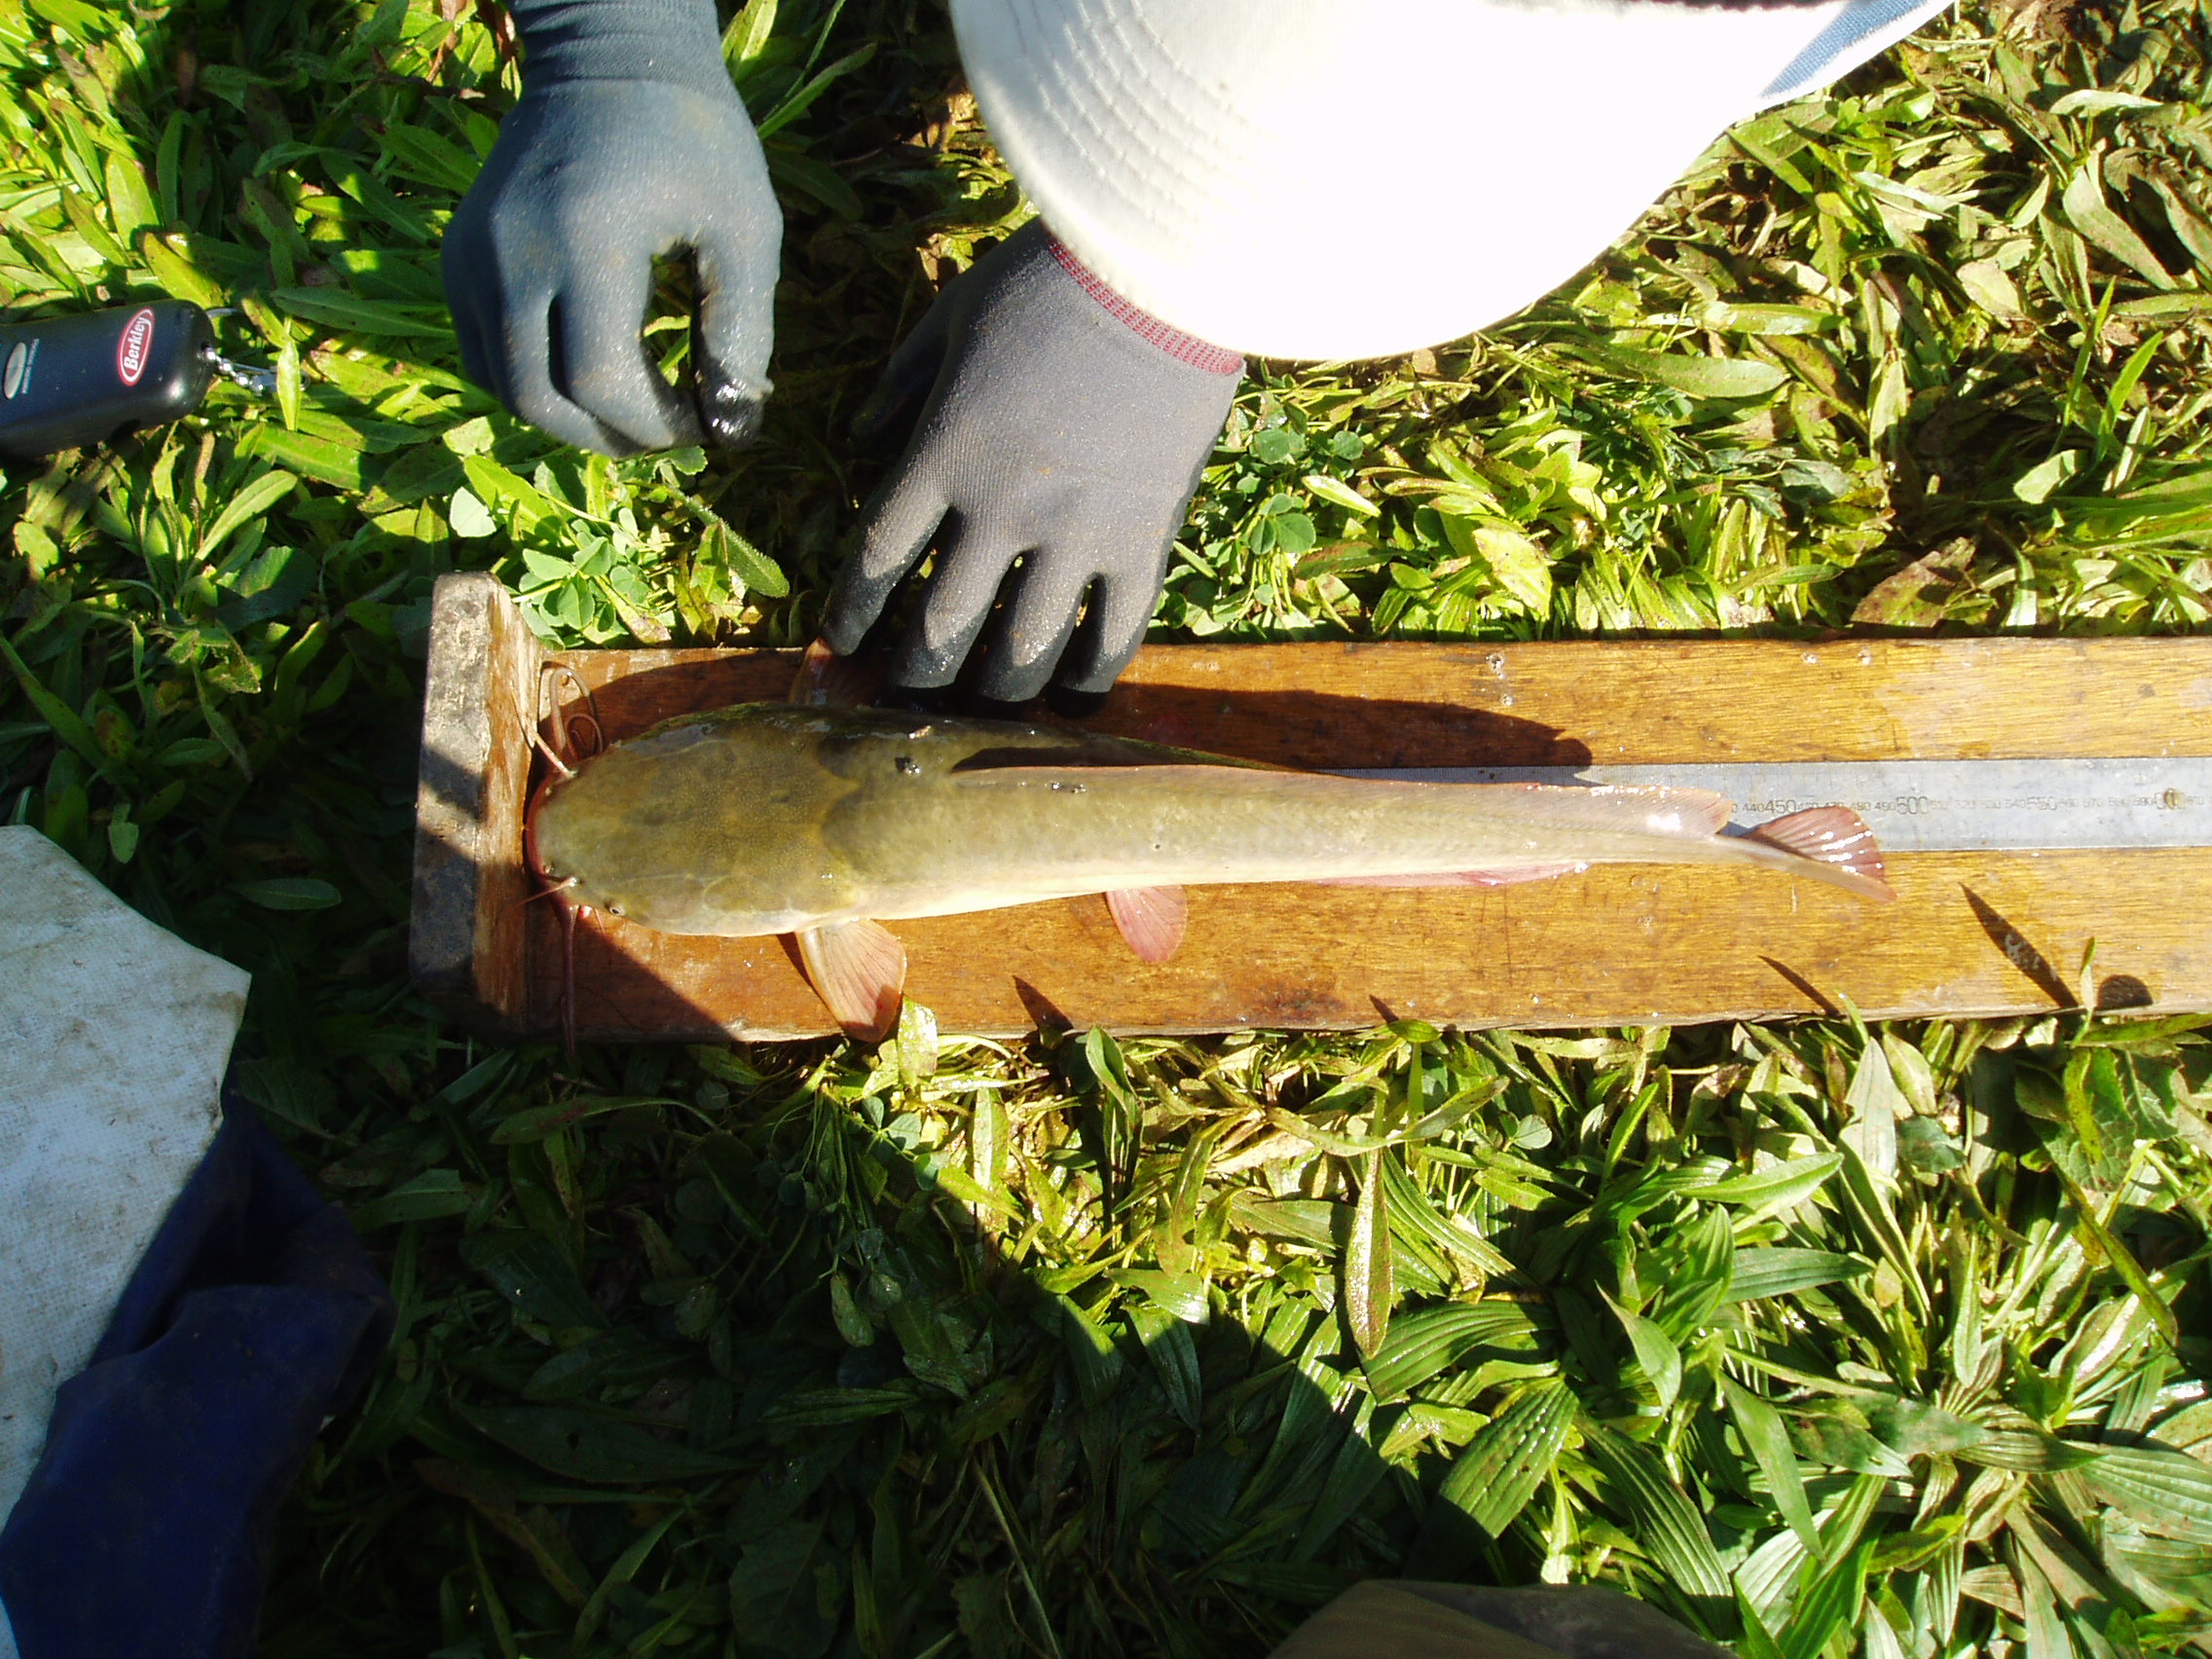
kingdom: Animalia
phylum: Chordata
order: Siluriformes
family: Clariidae
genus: Clarias
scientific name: Clarias
